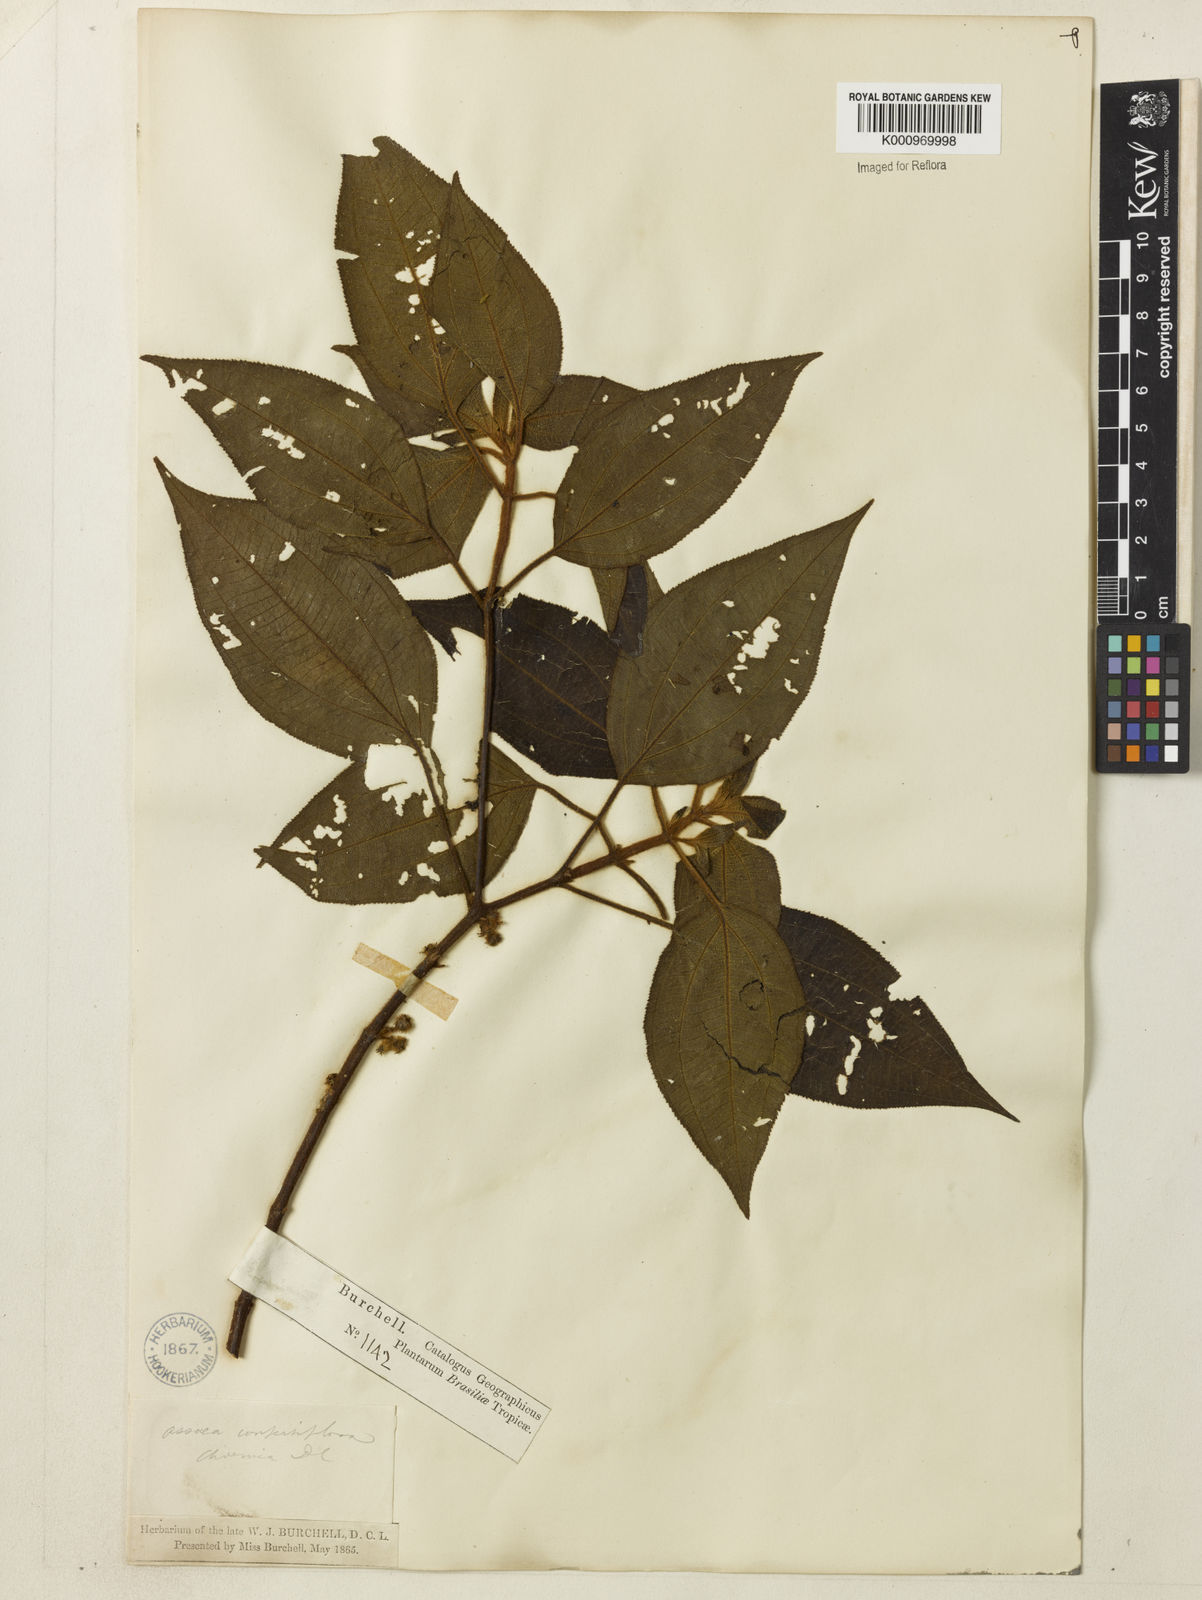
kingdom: Plantae
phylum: Tracheophyta
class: Magnoliopsida
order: Myrtales
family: Melastomataceae
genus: Miconia
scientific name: Miconia rubella
